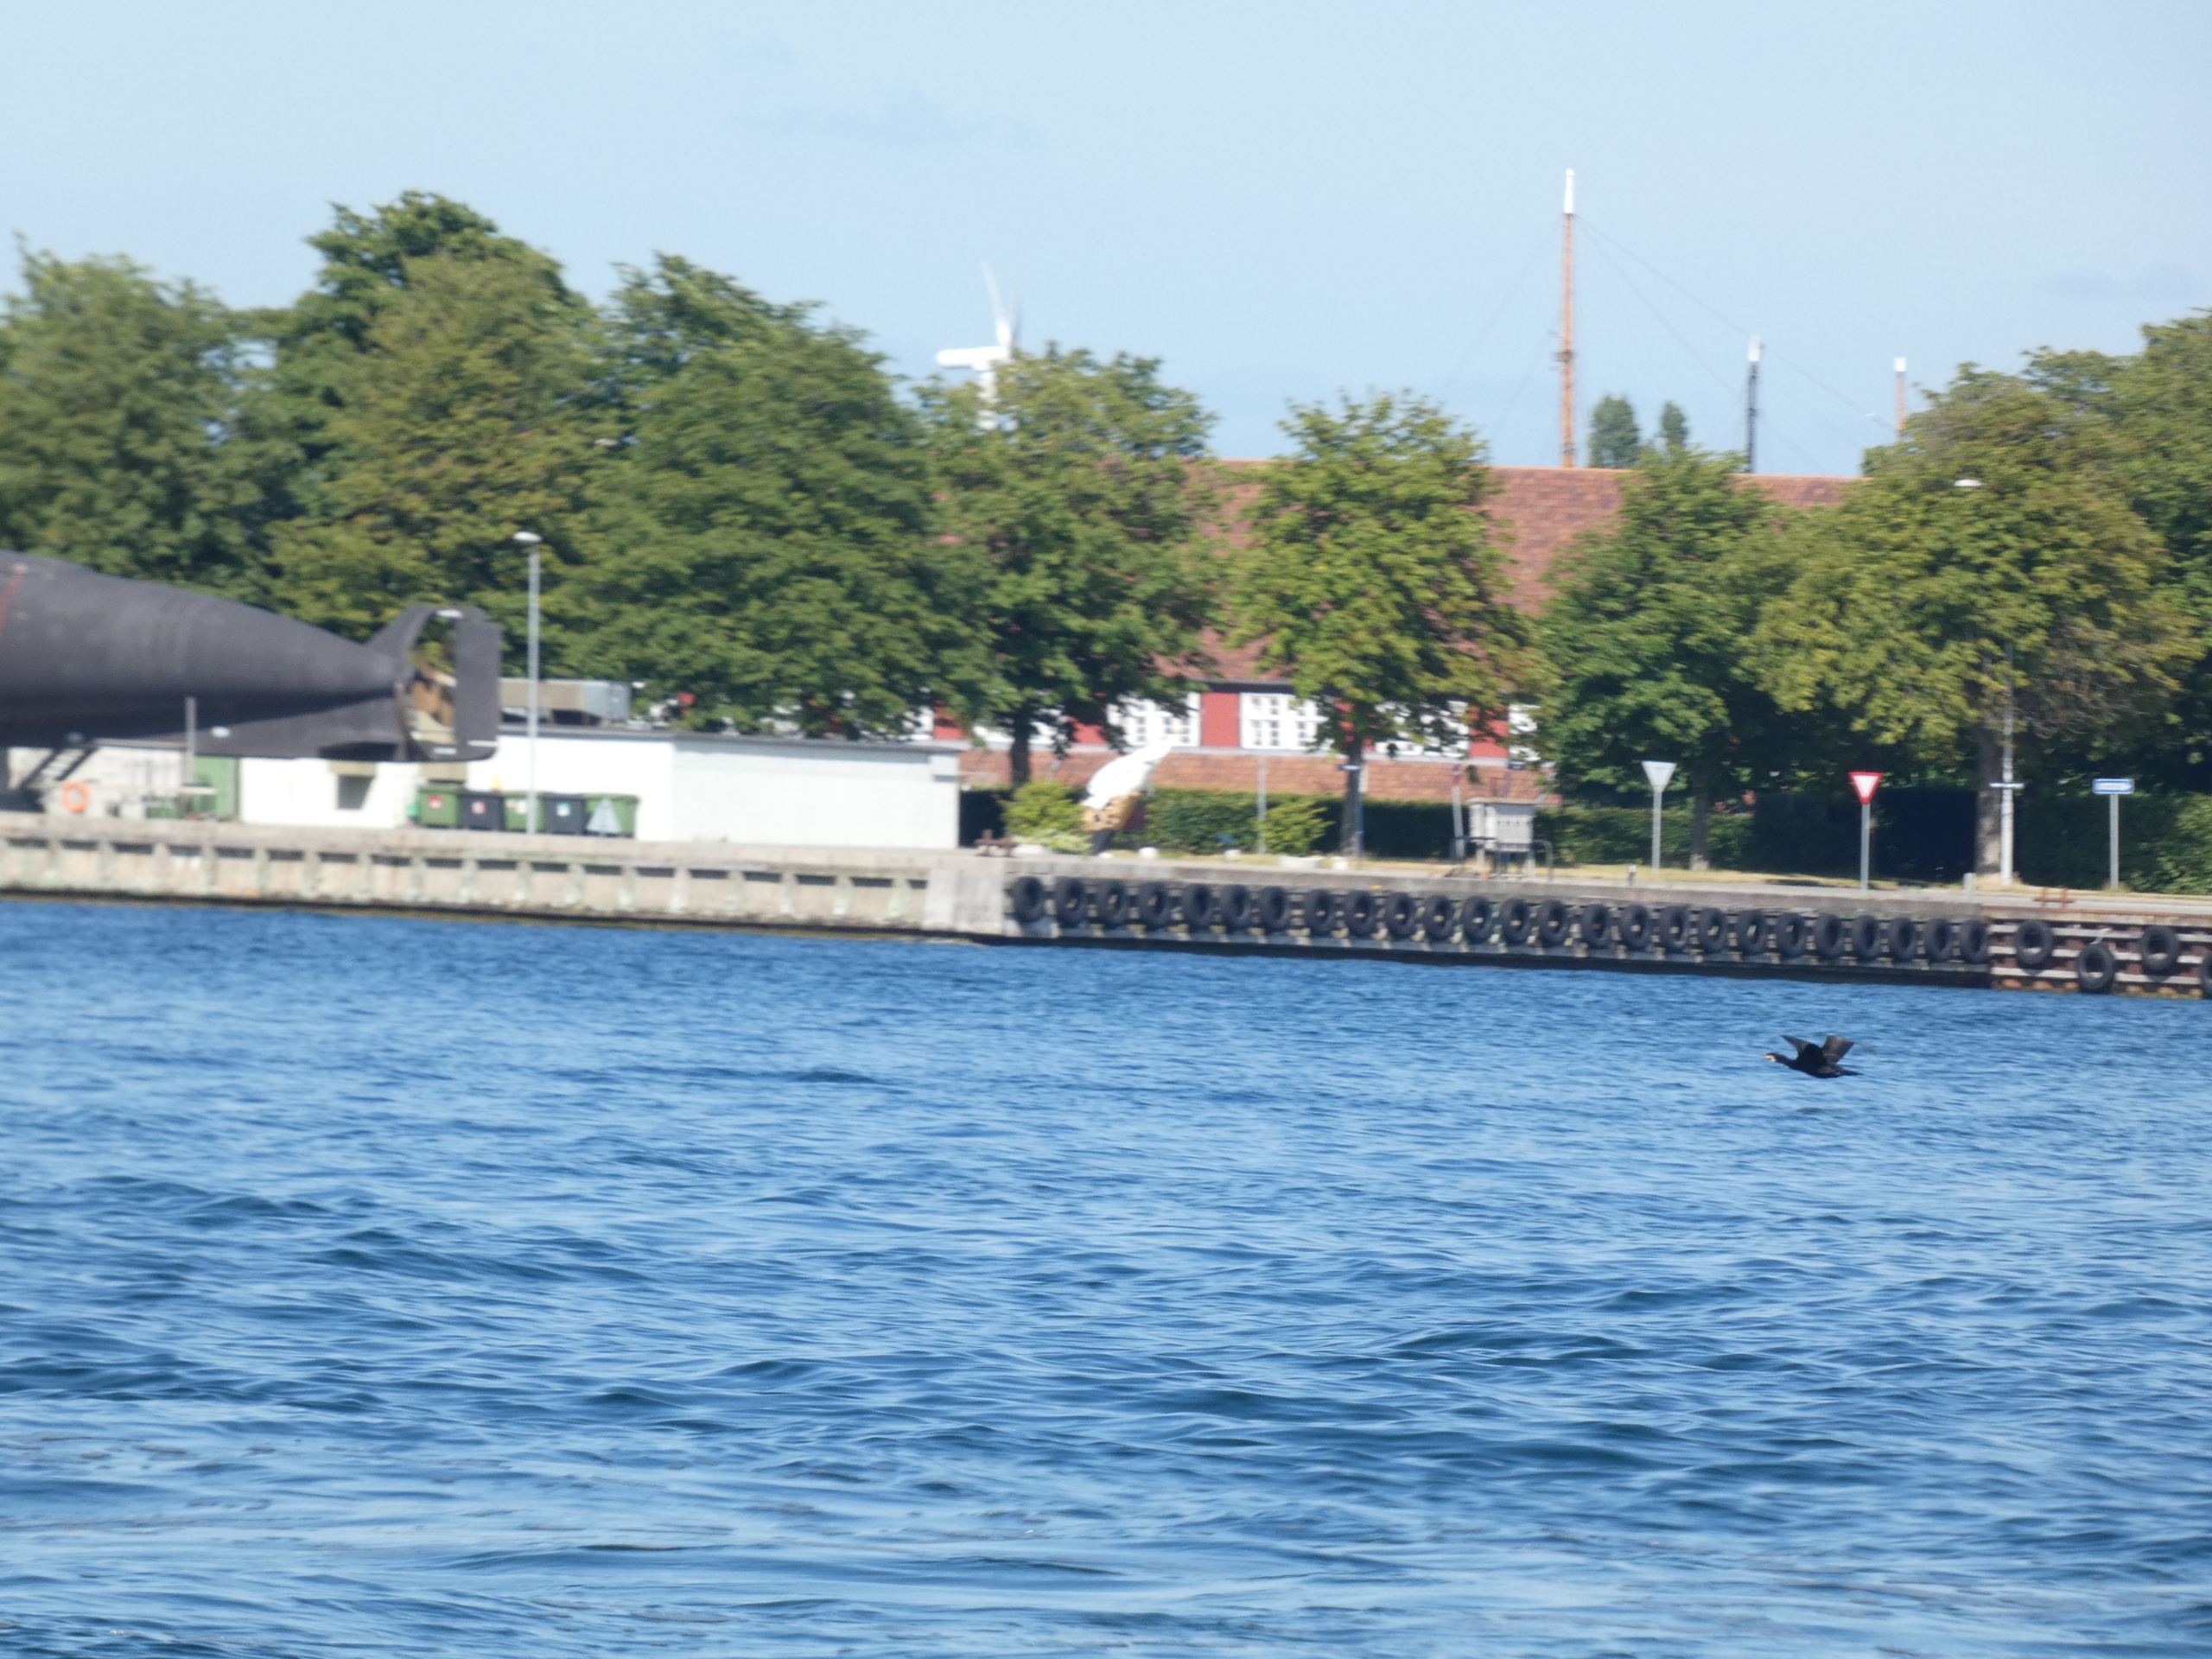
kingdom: Animalia
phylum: Chordata
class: Aves
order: Suliformes
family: Phalacrocoracidae
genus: Phalacrocorax
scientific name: Phalacrocorax carbo
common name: Skarv
